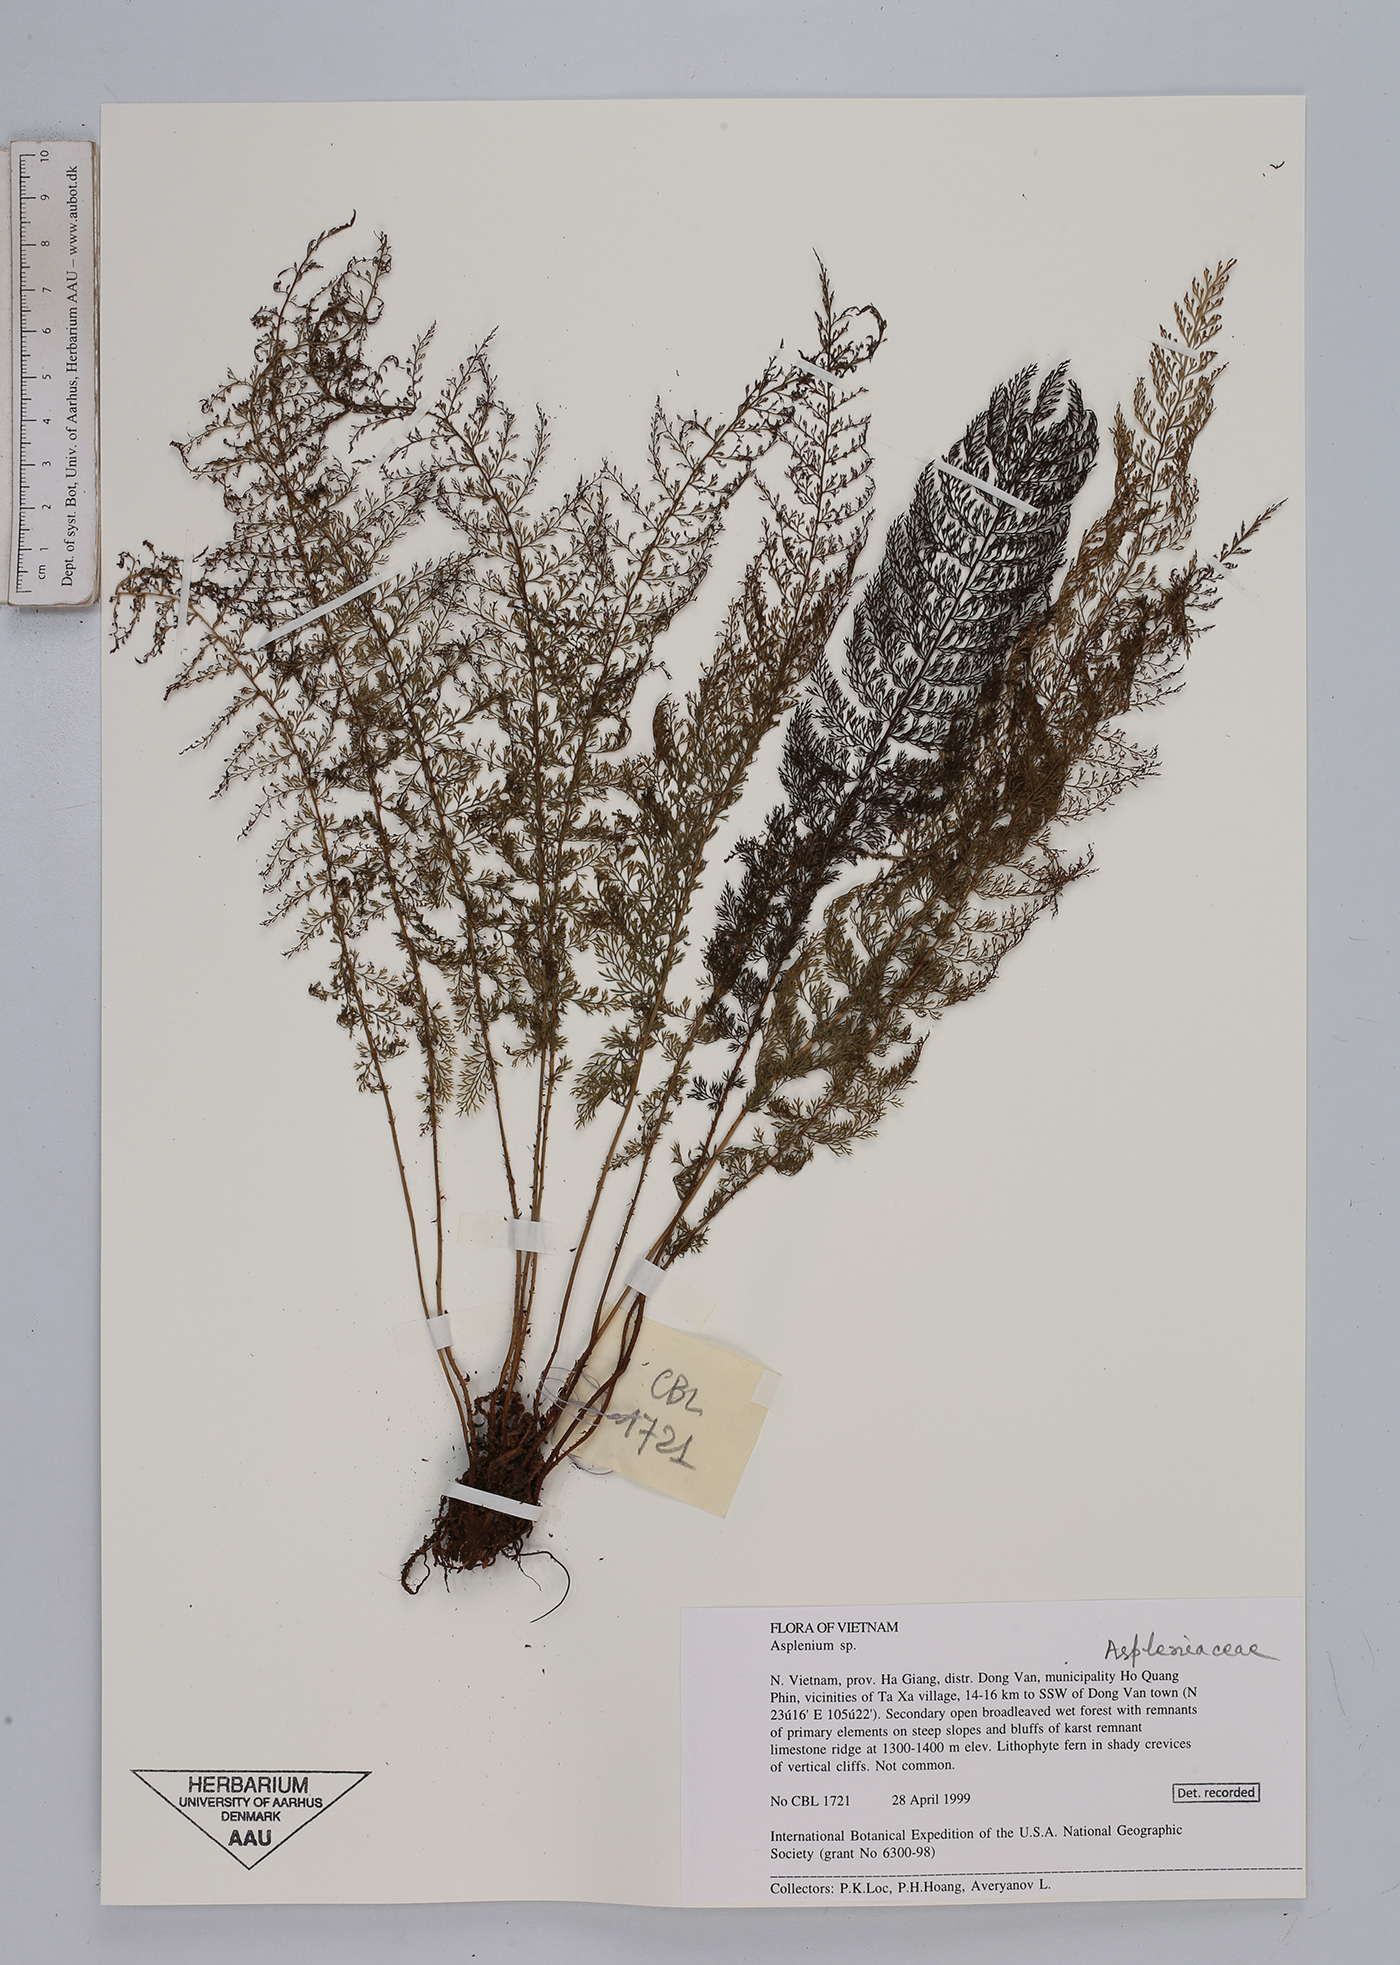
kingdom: Plantae
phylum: Tracheophyta
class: Polypodiopsida
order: Polypodiales
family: Aspleniaceae
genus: Asplenium
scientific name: Asplenium
